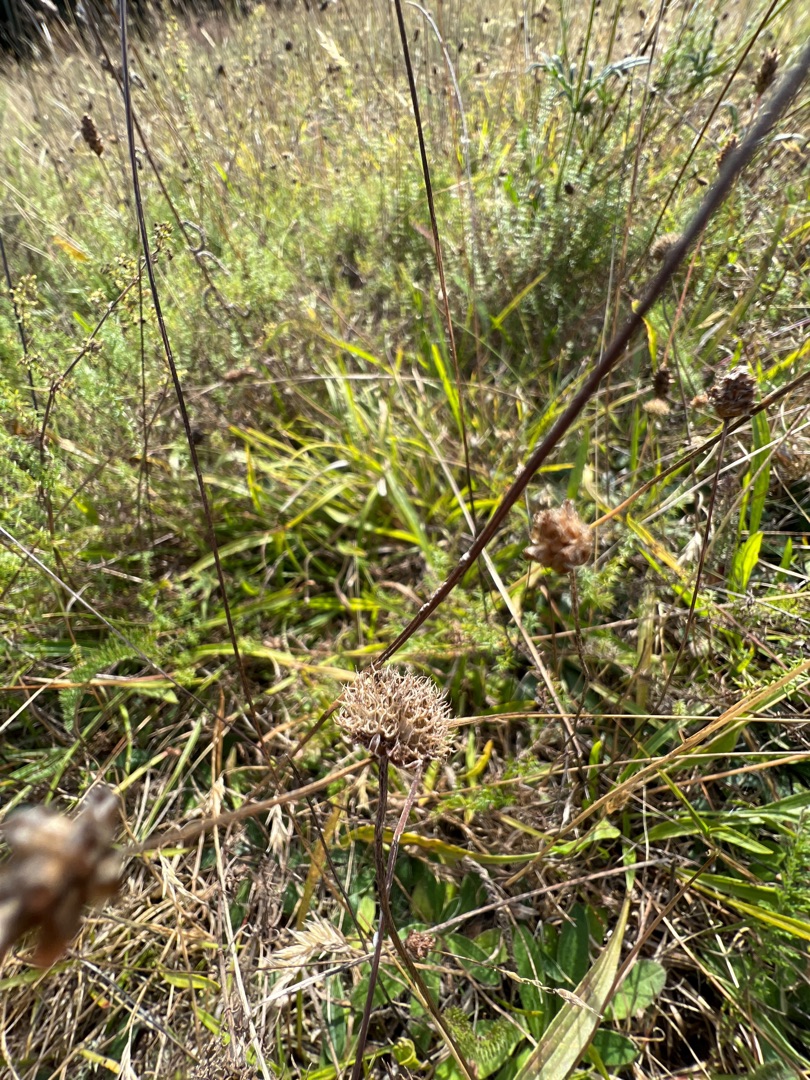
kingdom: Plantae
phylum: Tracheophyta
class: Magnoliopsida
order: Asterales
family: Campanulaceae
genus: Jasione
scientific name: Jasione montana
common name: Blåmunke
